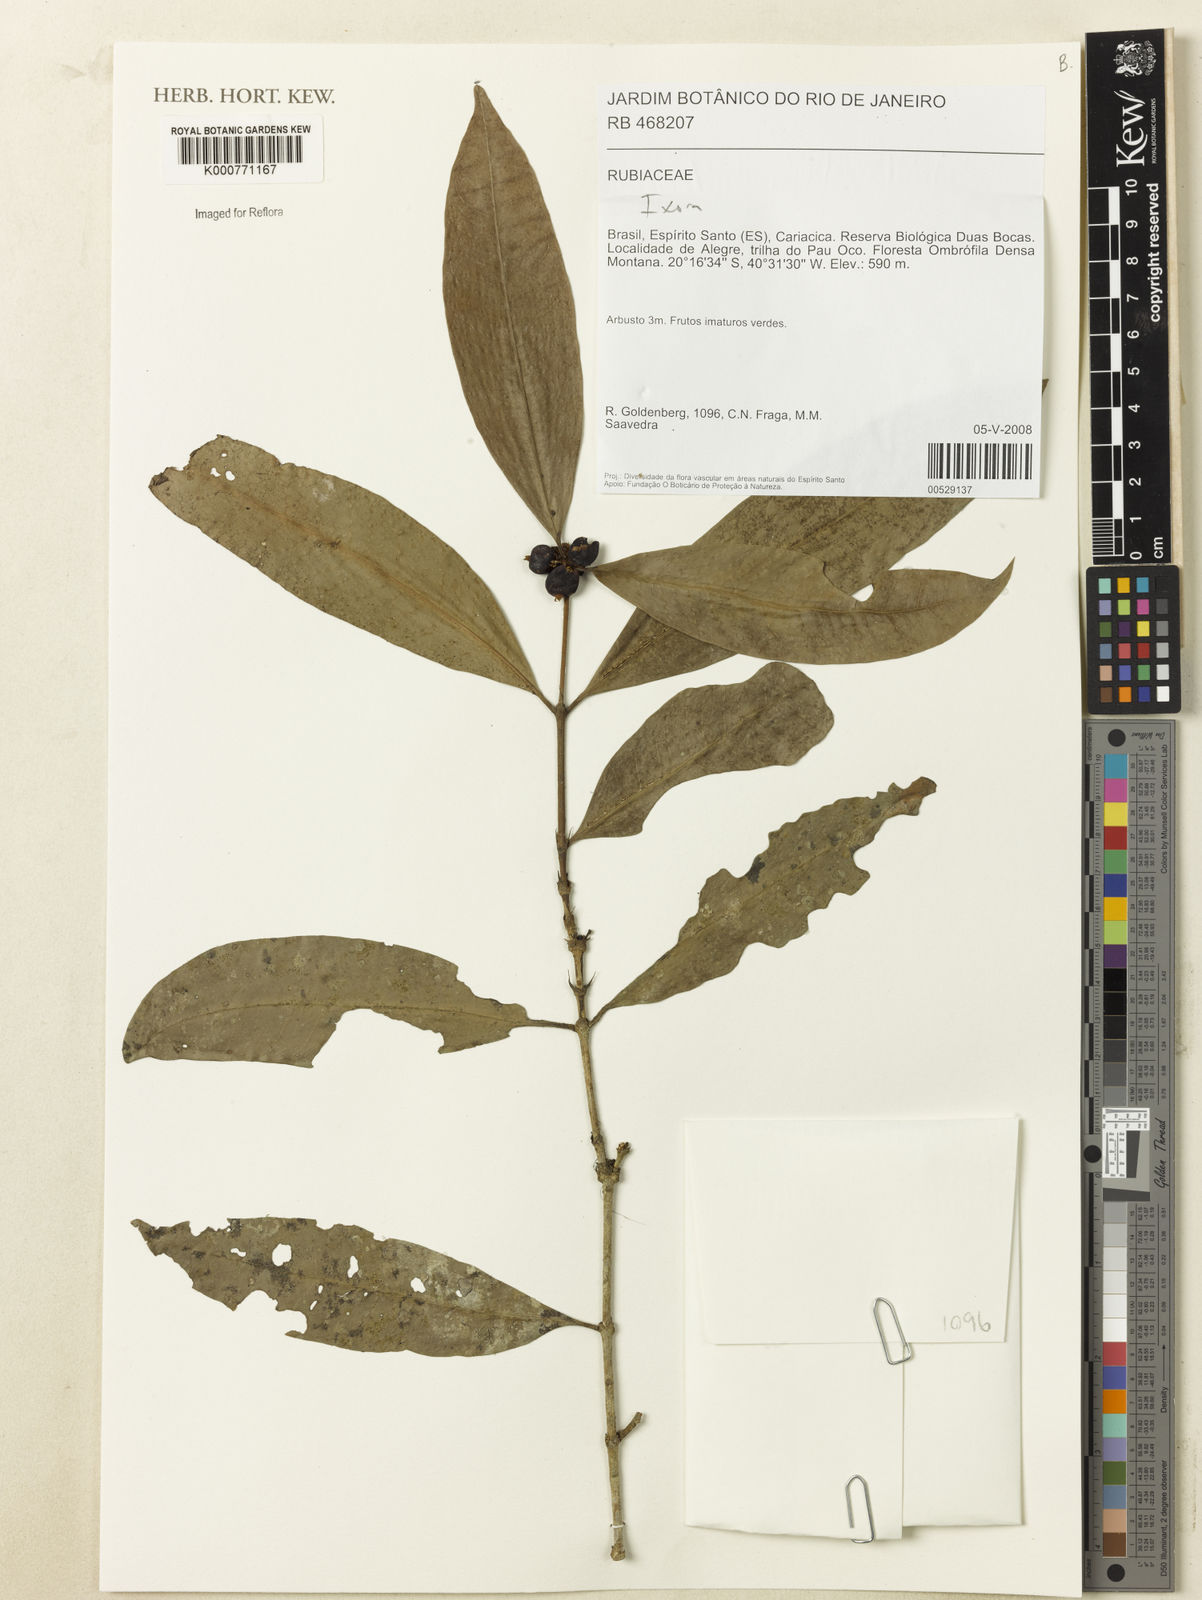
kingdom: Plantae
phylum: Tracheophyta
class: Magnoliopsida
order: Gentianales
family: Rubiaceae
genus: Ixora
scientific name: Ixora
